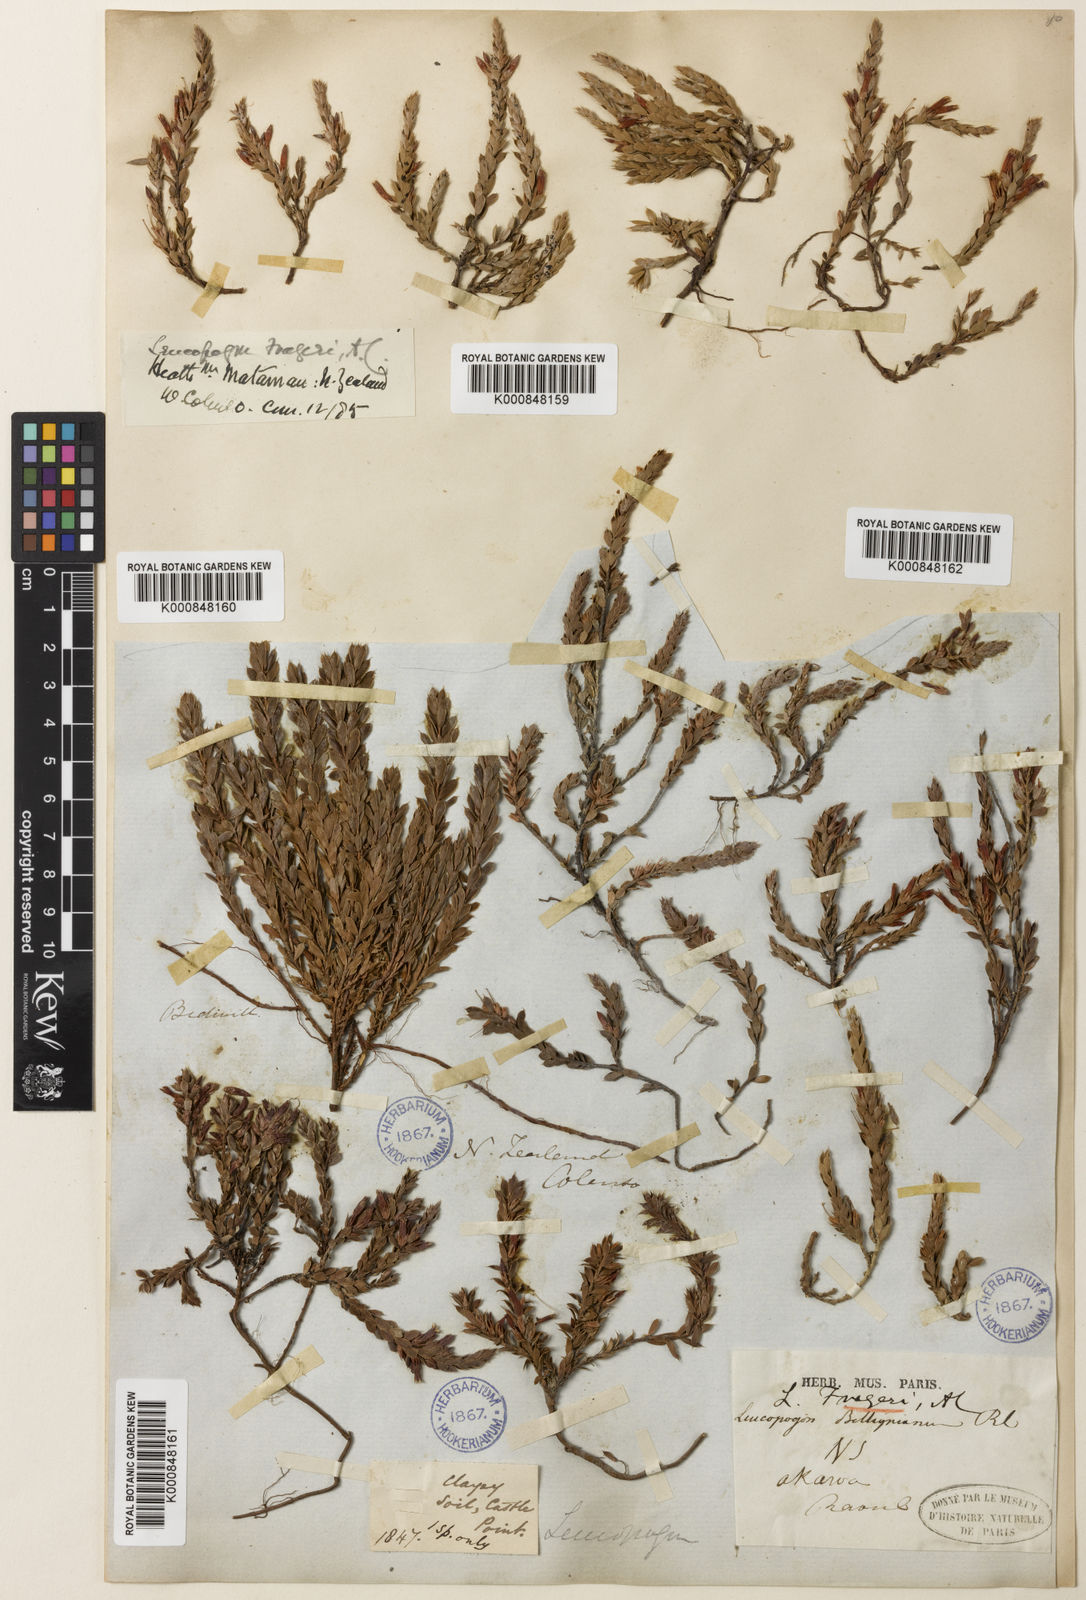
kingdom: Plantae
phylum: Tracheophyta
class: Magnoliopsida
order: Ericales
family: Ericaceae
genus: Styphelia
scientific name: Styphelia nesophila
